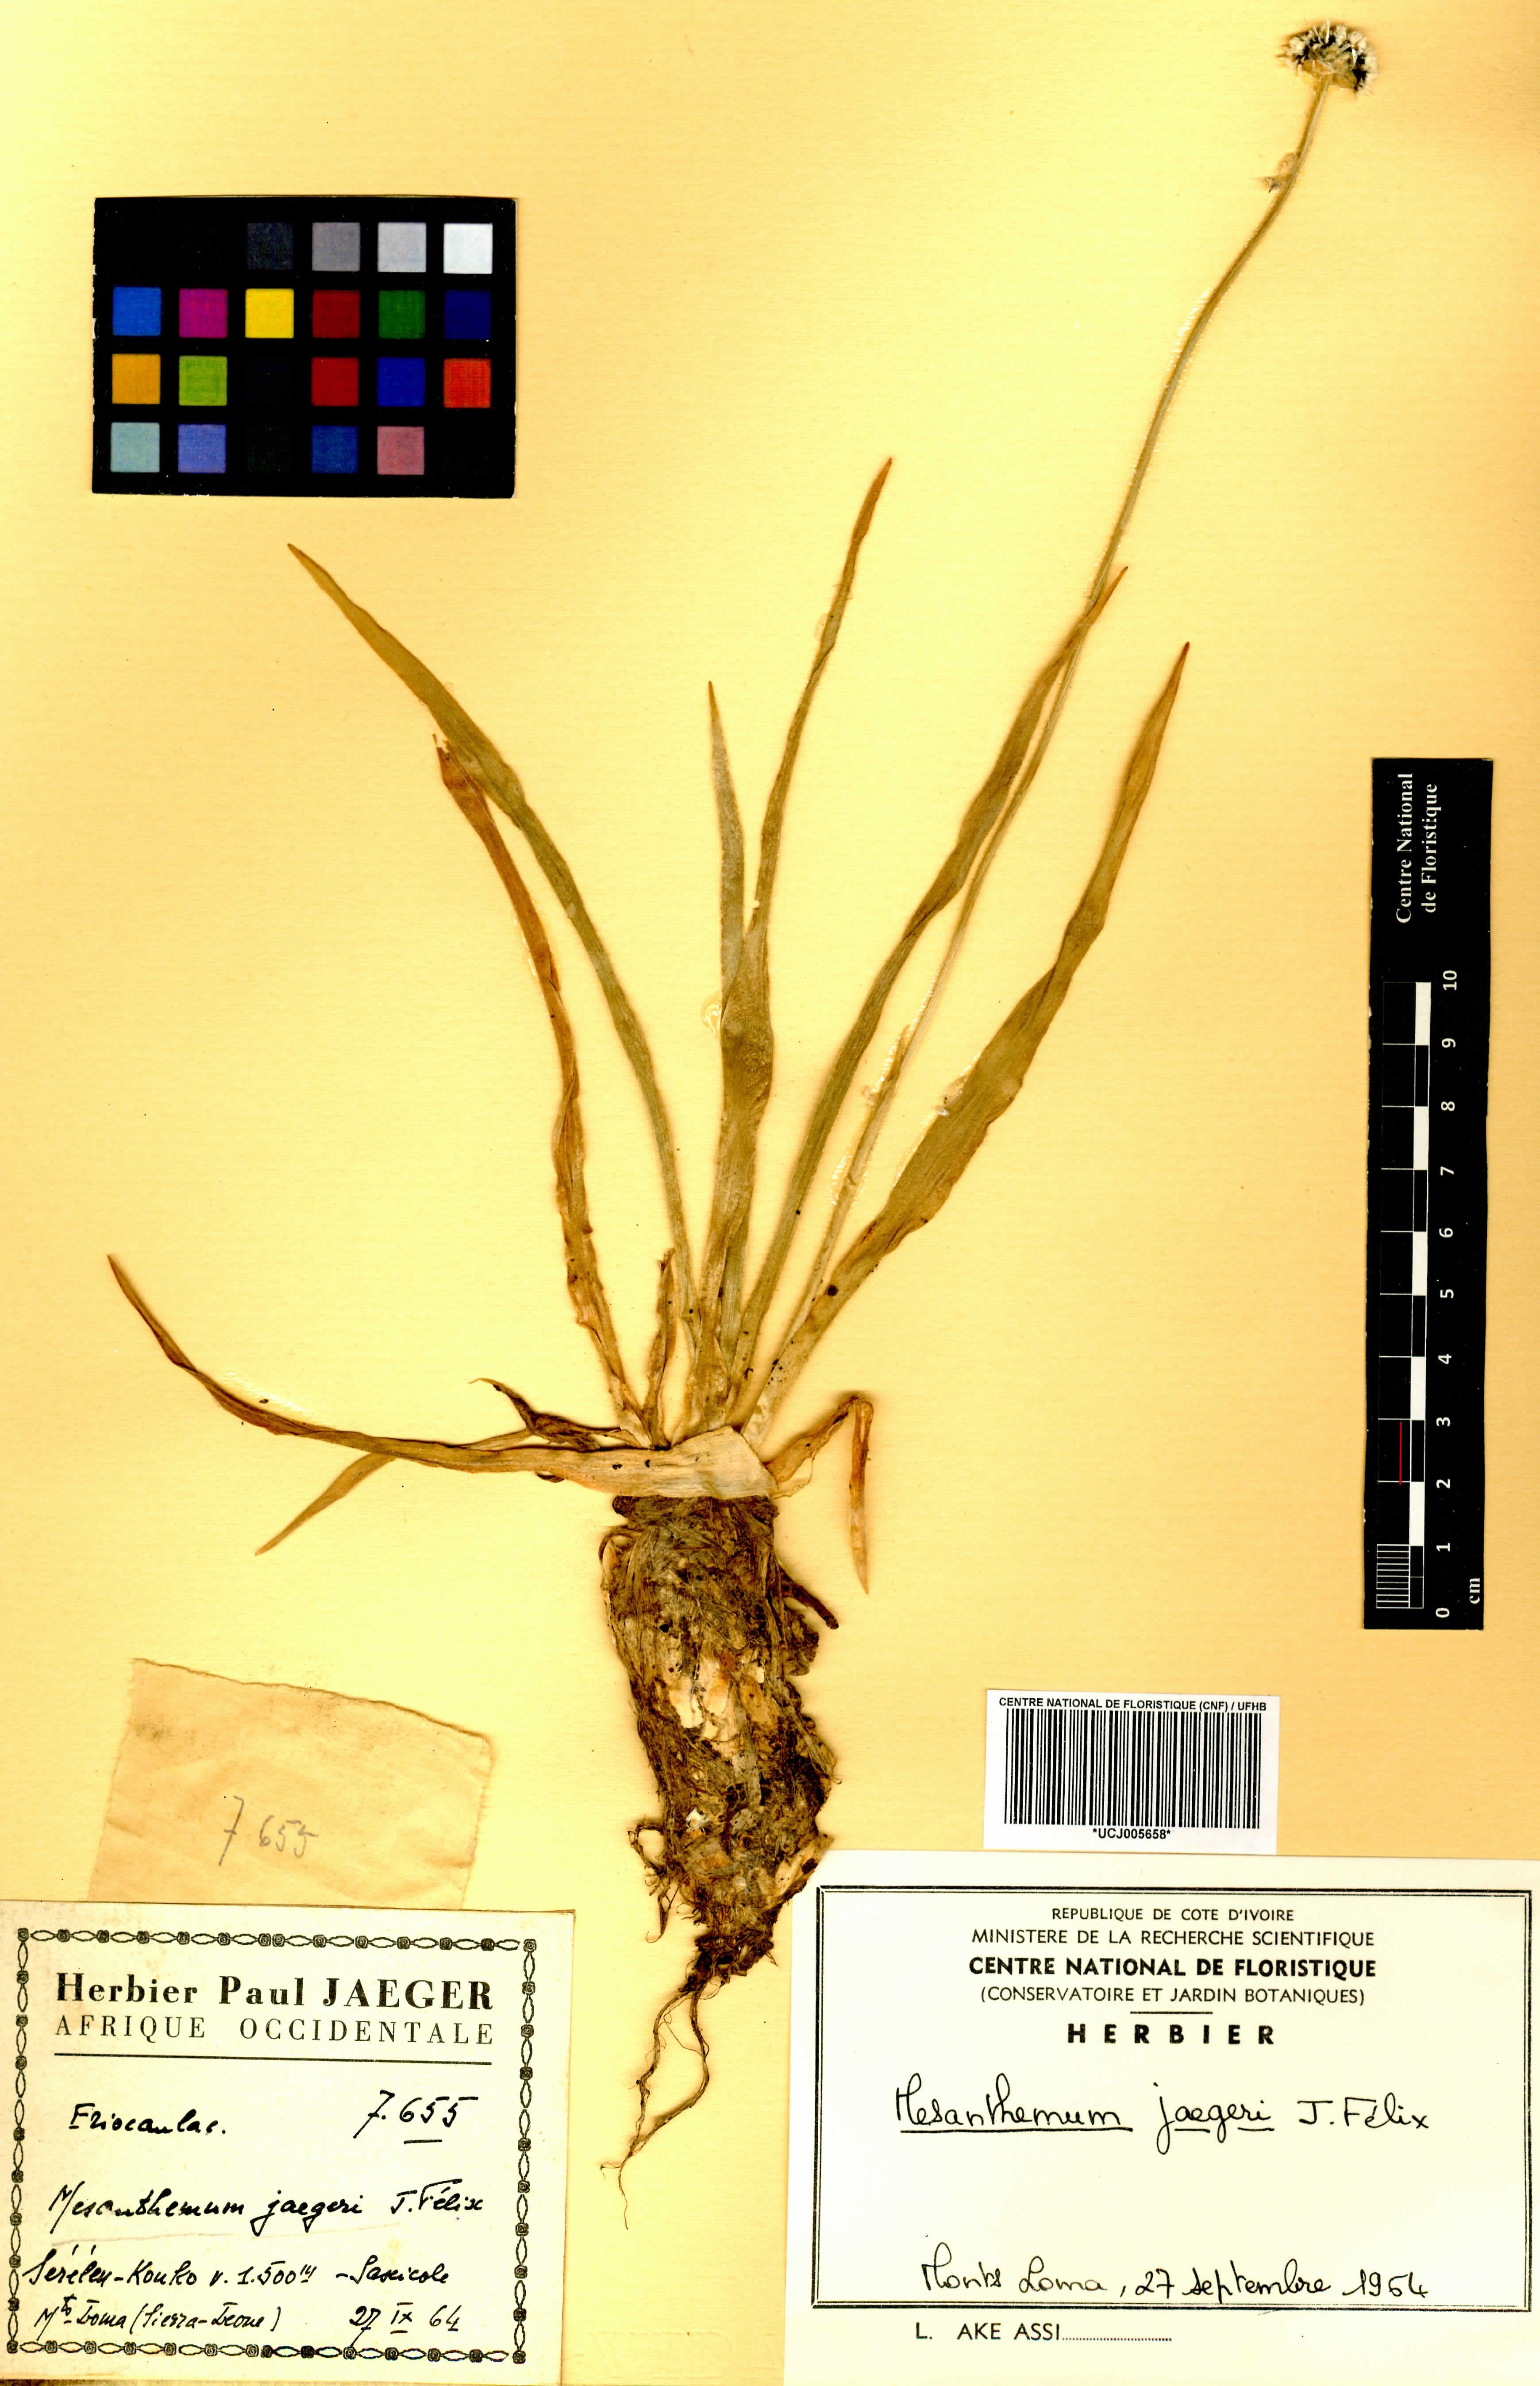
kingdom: Plantae
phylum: Tracheophyta
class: Liliopsida
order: Poales
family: Eriocaulaceae
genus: Mesanthemum
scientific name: Mesanthemum jaegeri
